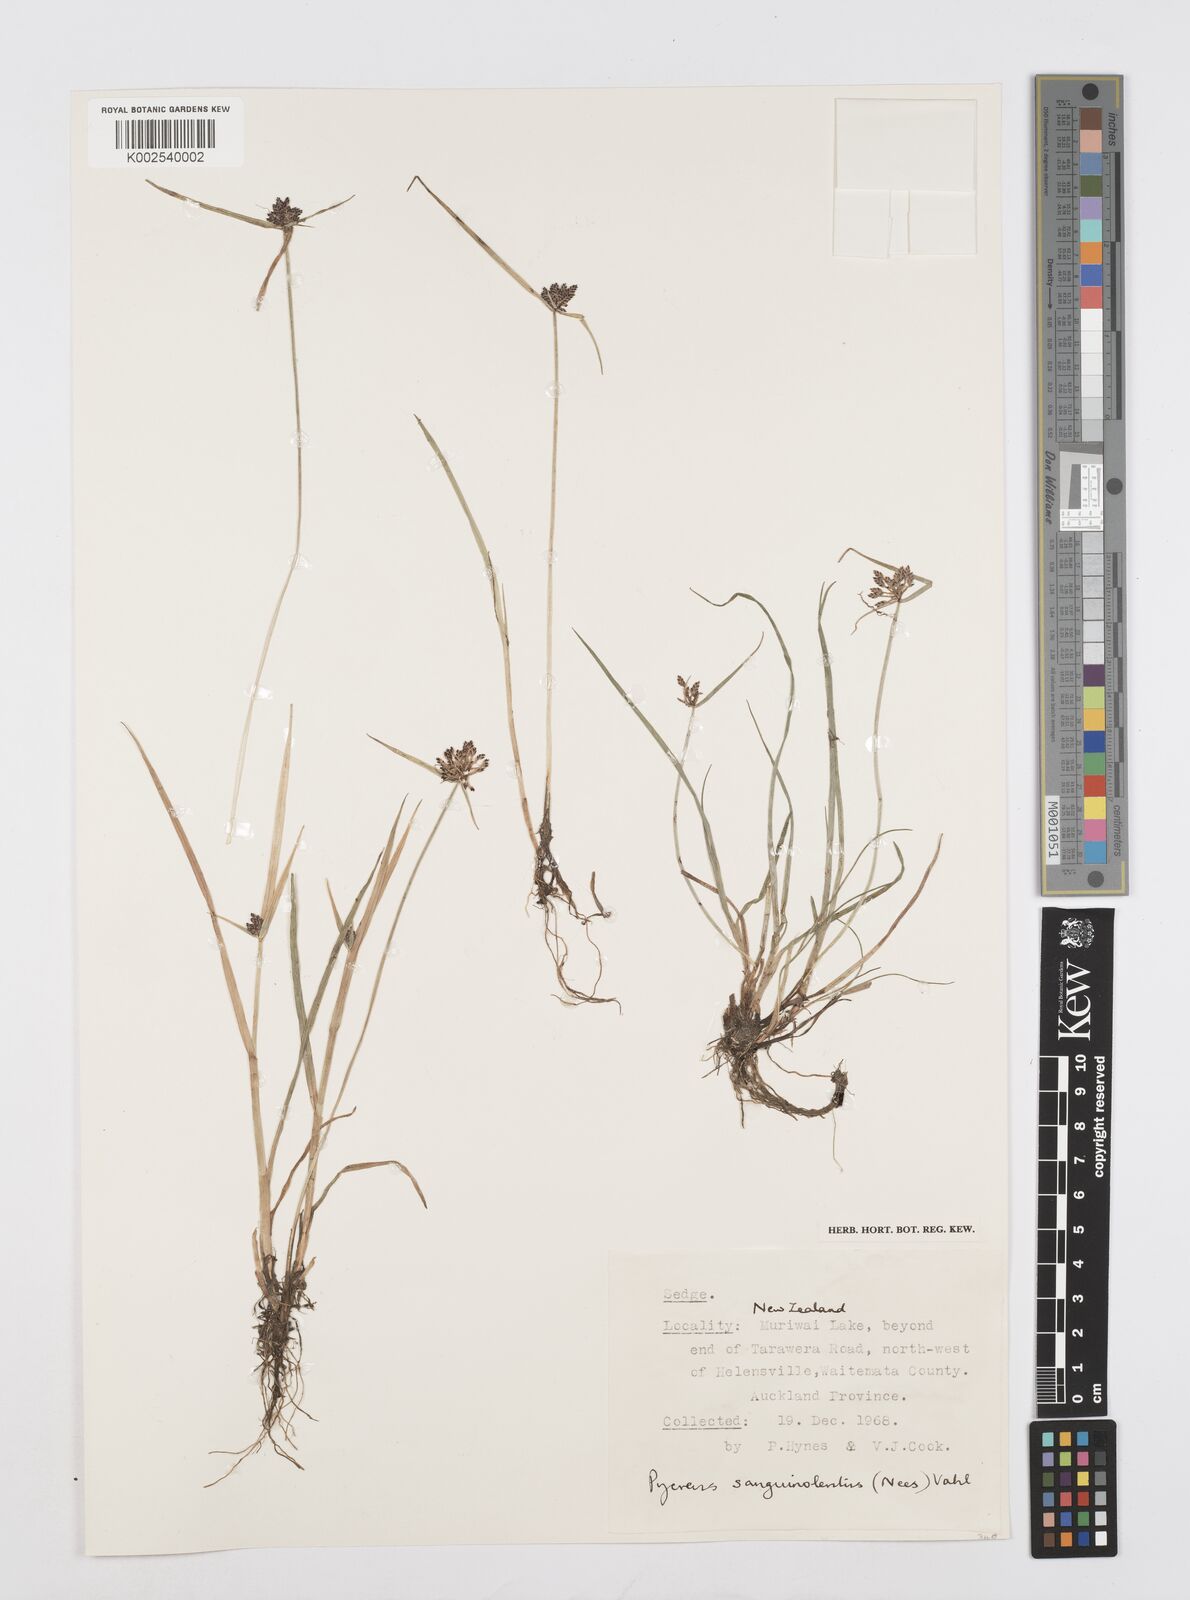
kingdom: Plantae
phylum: Tracheophyta
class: Liliopsida
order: Poales
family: Cyperaceae
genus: Cyperus
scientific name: Cyperus sanguinolentus
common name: Purpleglume flatsedge
